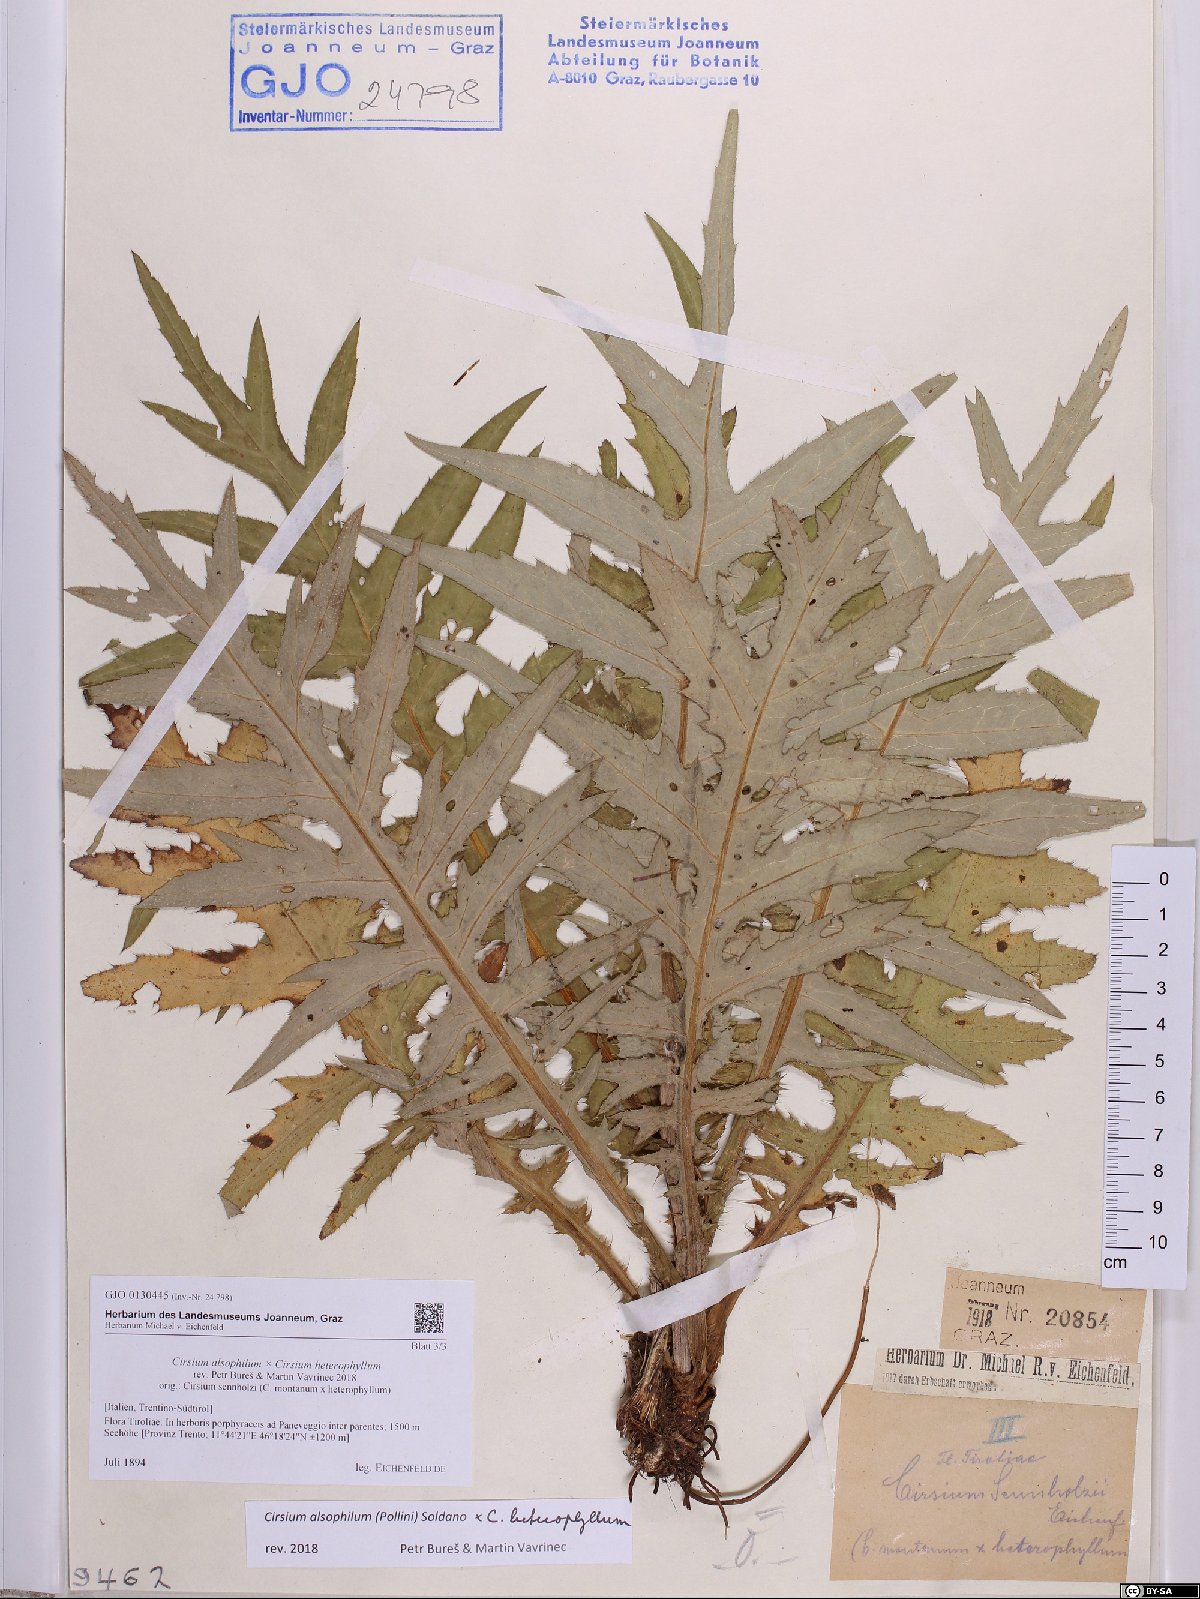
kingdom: Plantae
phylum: Tracheophyta
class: Magnoliopsida
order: Asterales
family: Asteraceae
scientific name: Asteraceae
